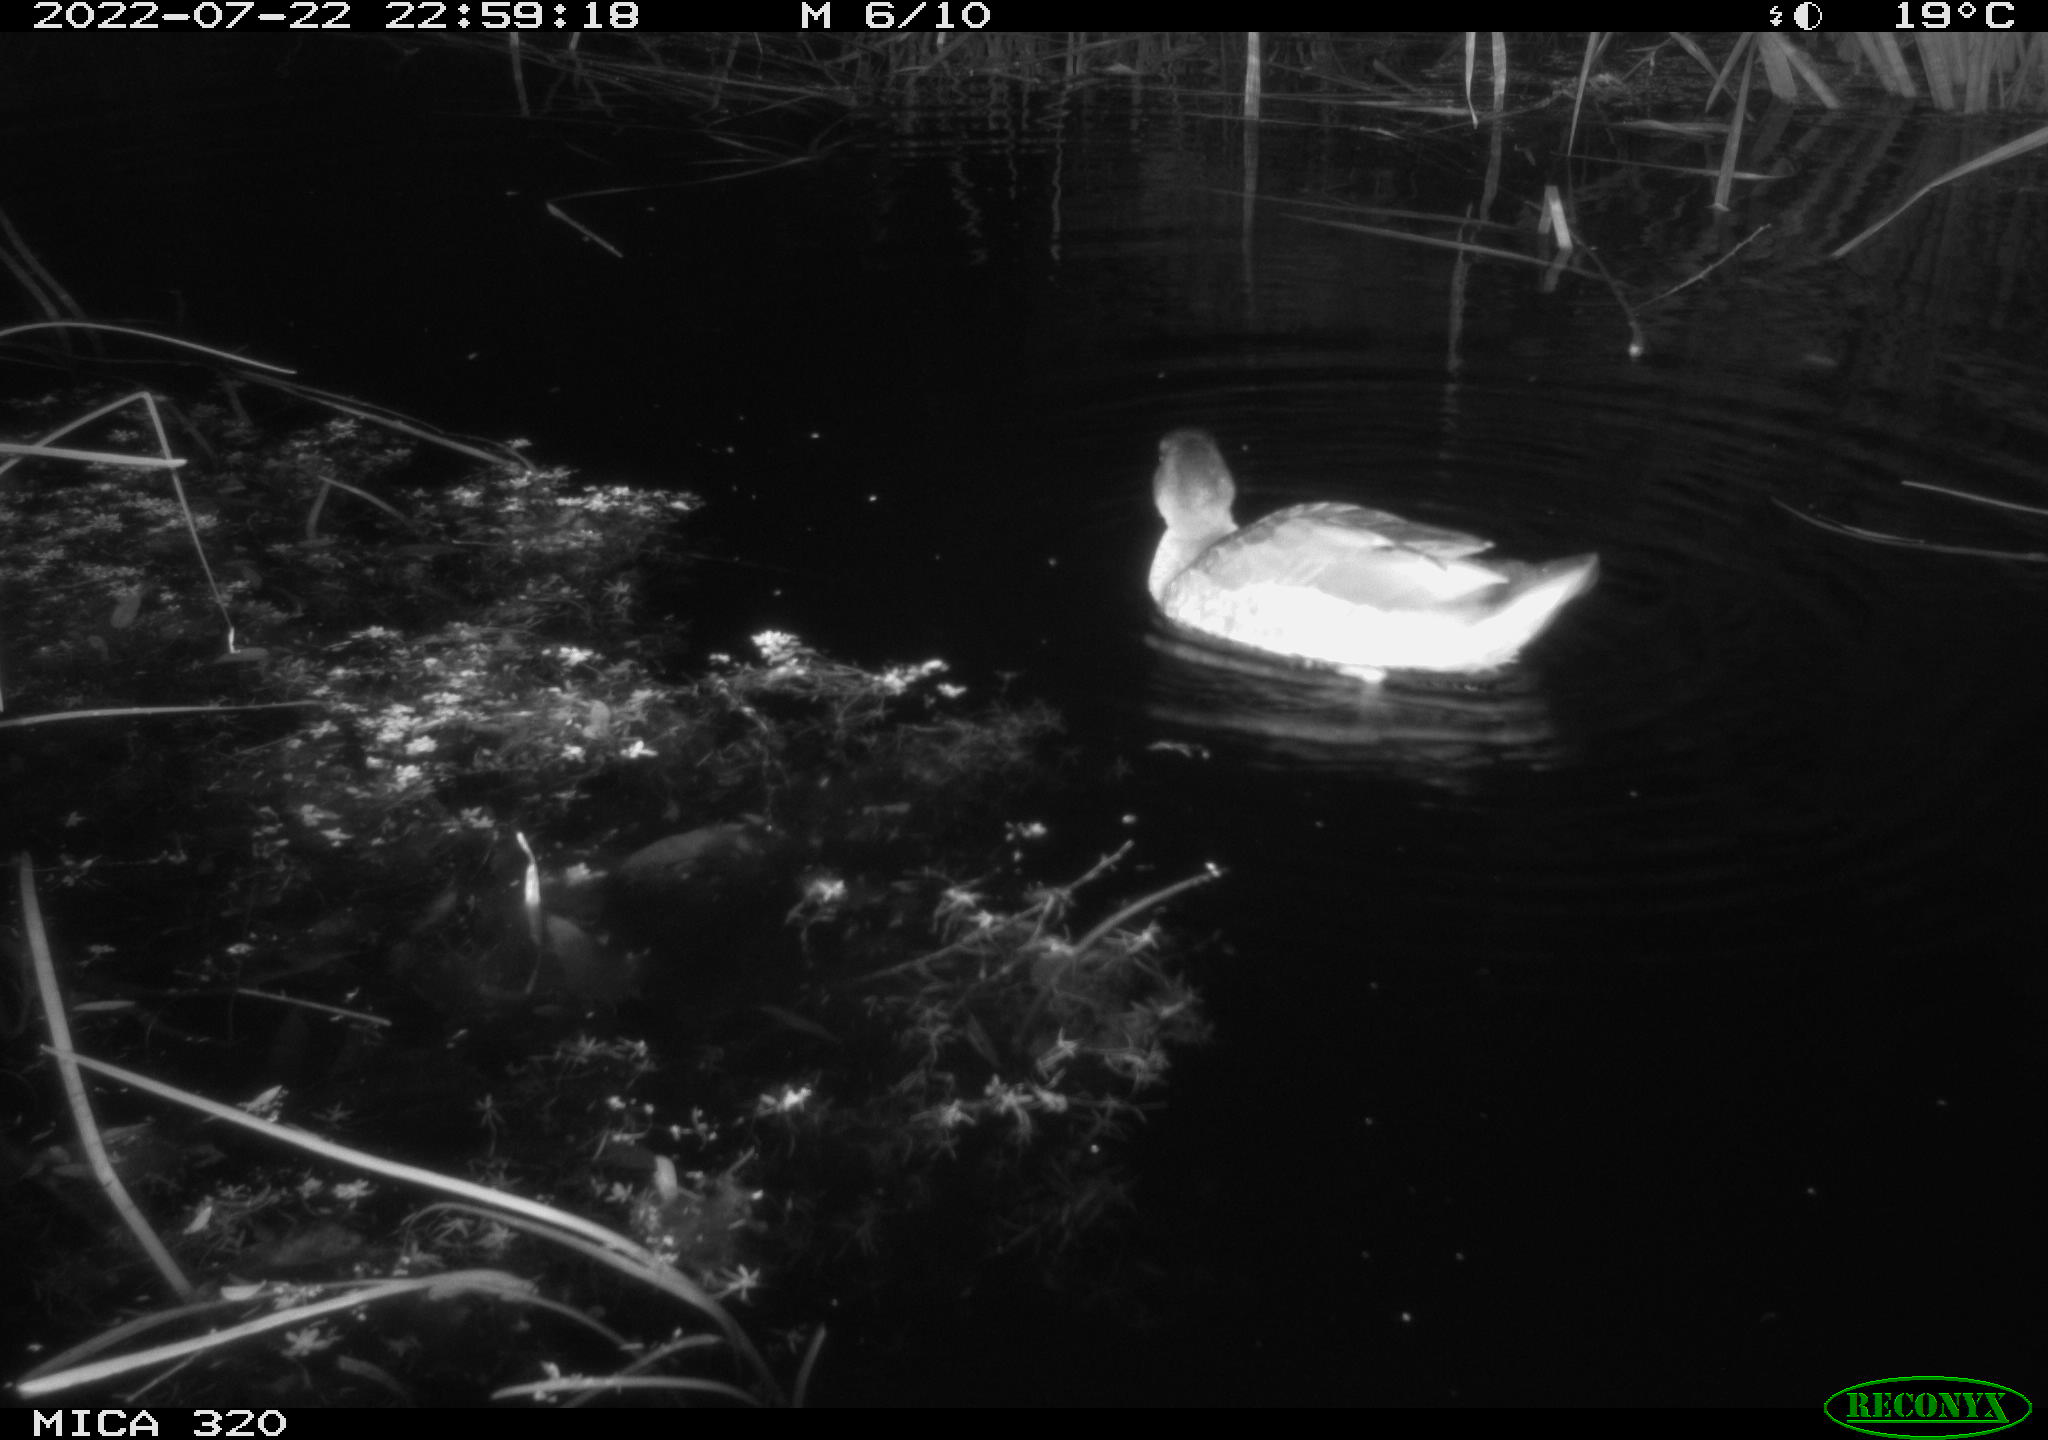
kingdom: Animalia
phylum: Chordata
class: Aves
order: Anseriformes
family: Anatidae
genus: Anas
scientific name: Anas platyrhynchos
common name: Mallard
